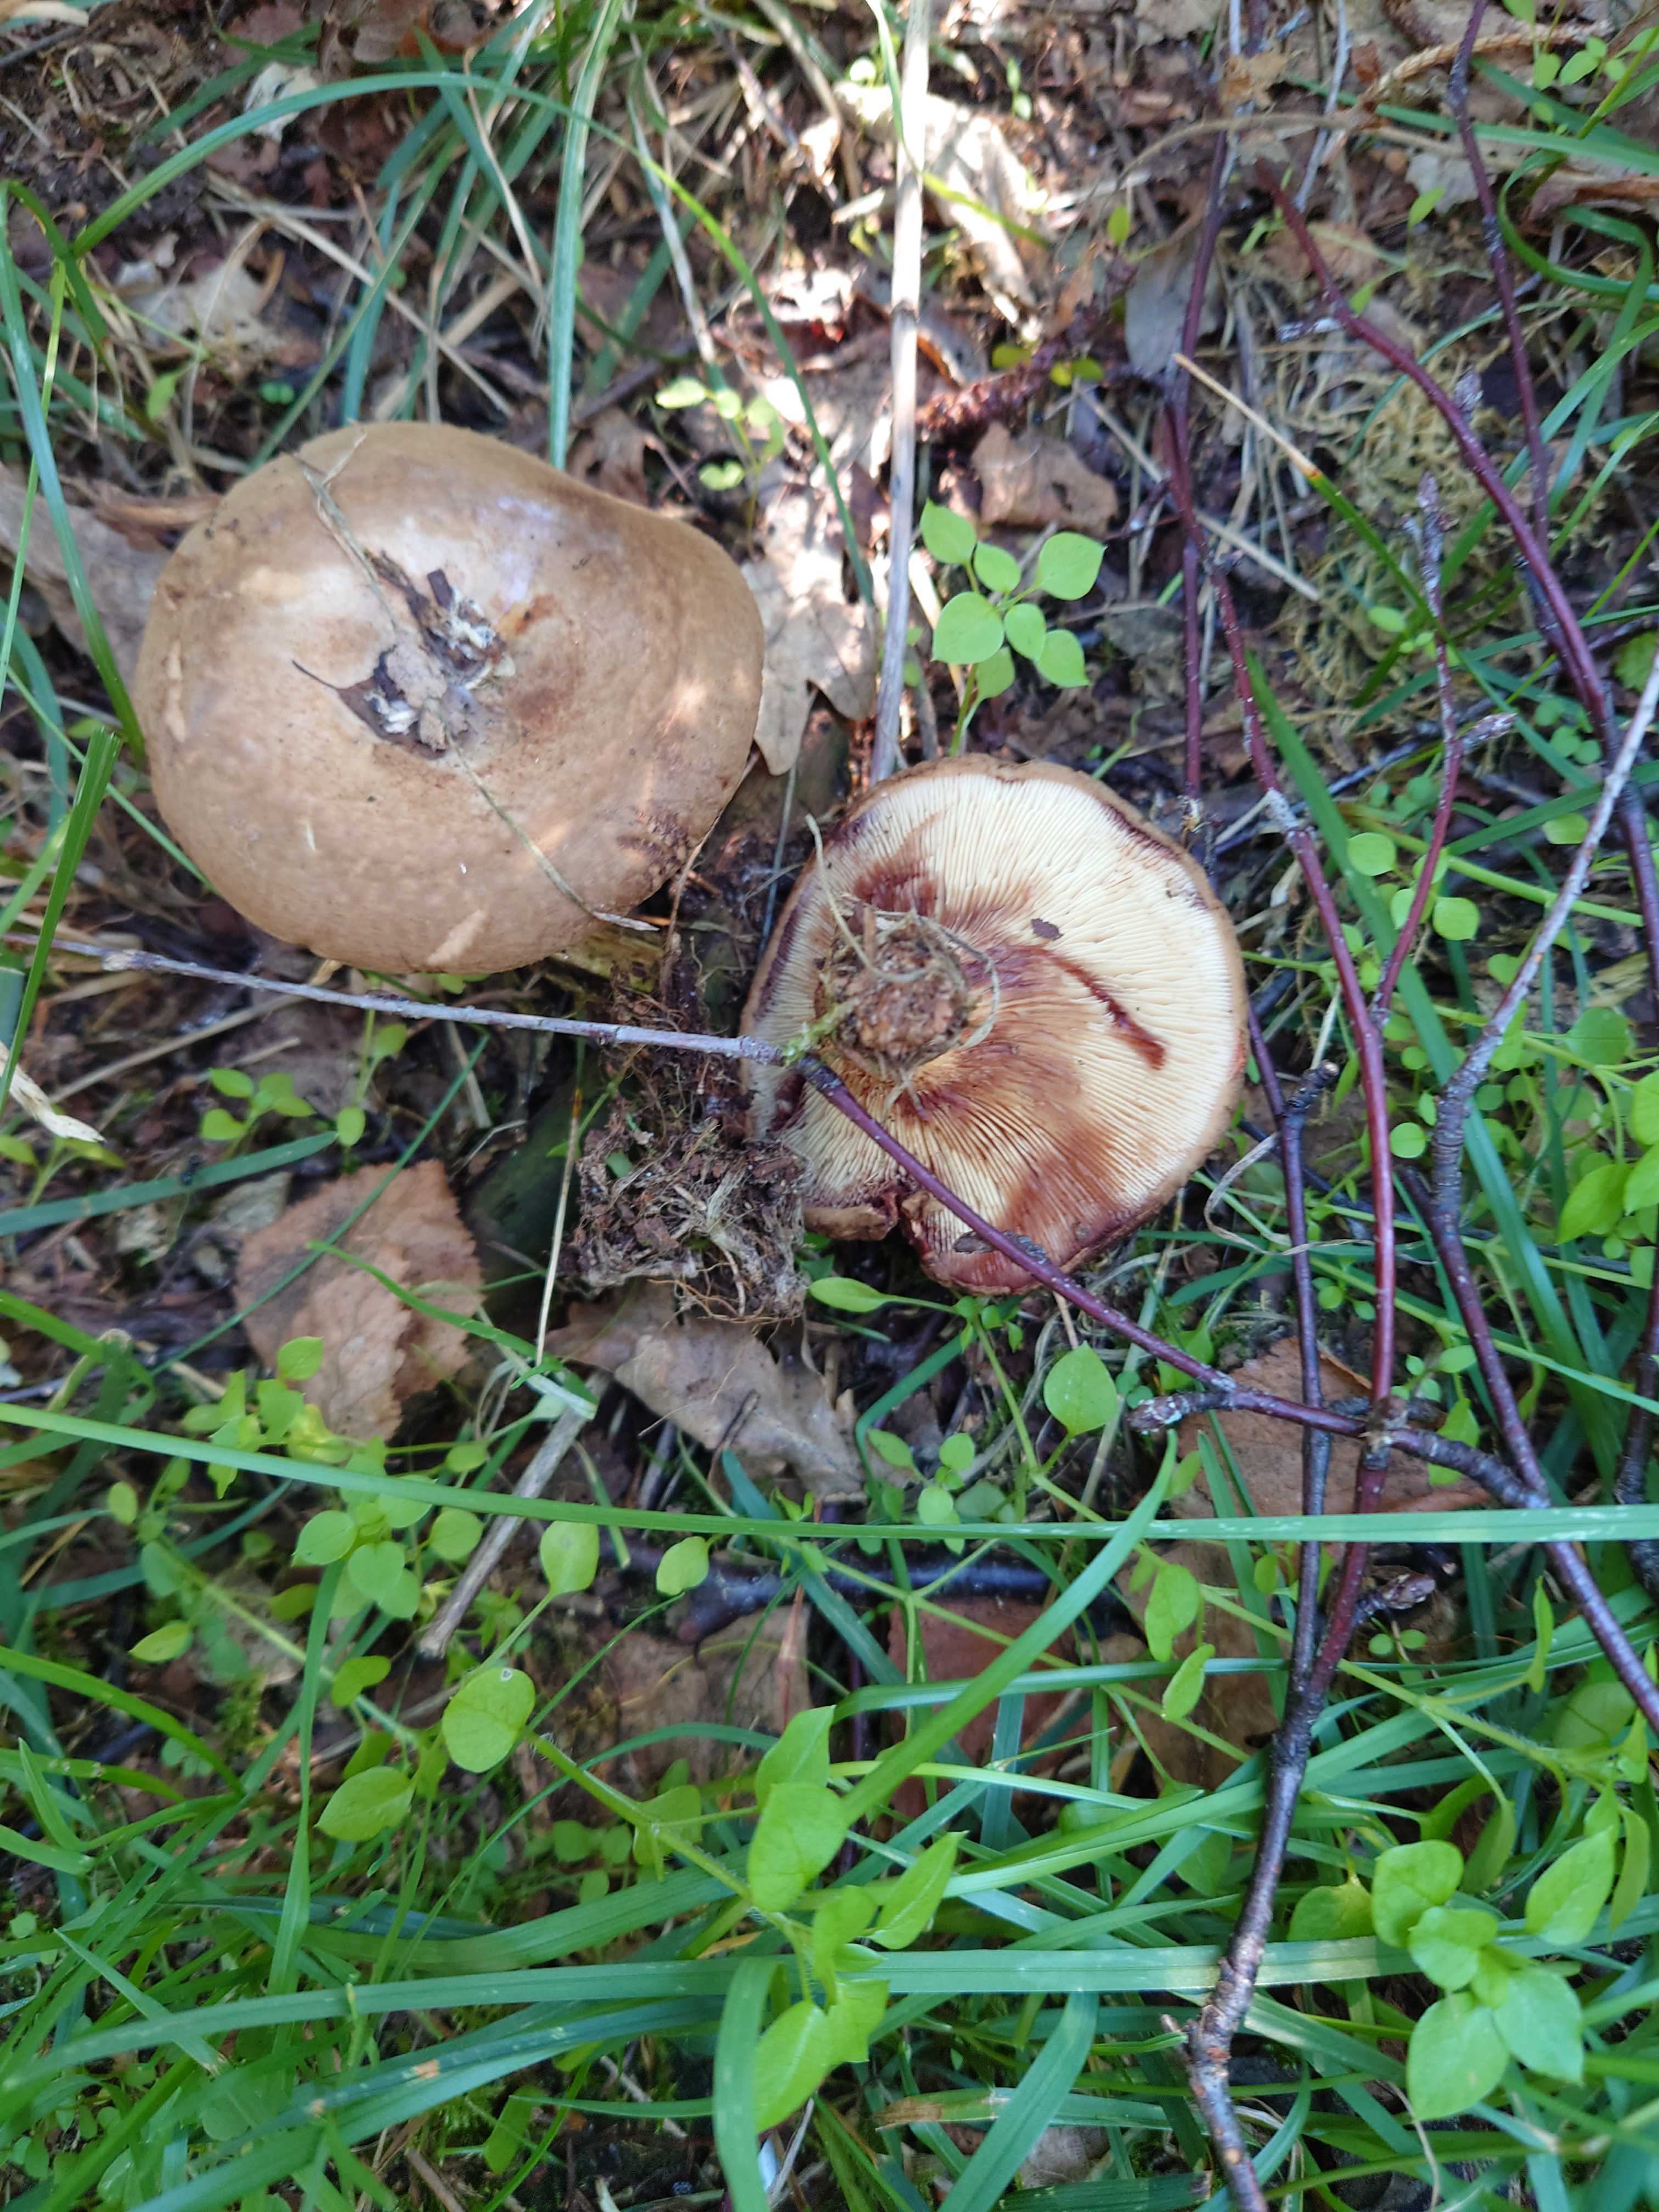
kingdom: Fungi
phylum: Basidiomycota
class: Agaricomycetes
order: Boletales
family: Paxillaceae
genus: Paxillus
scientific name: Paxillus involutus
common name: almindelig netbladhat
